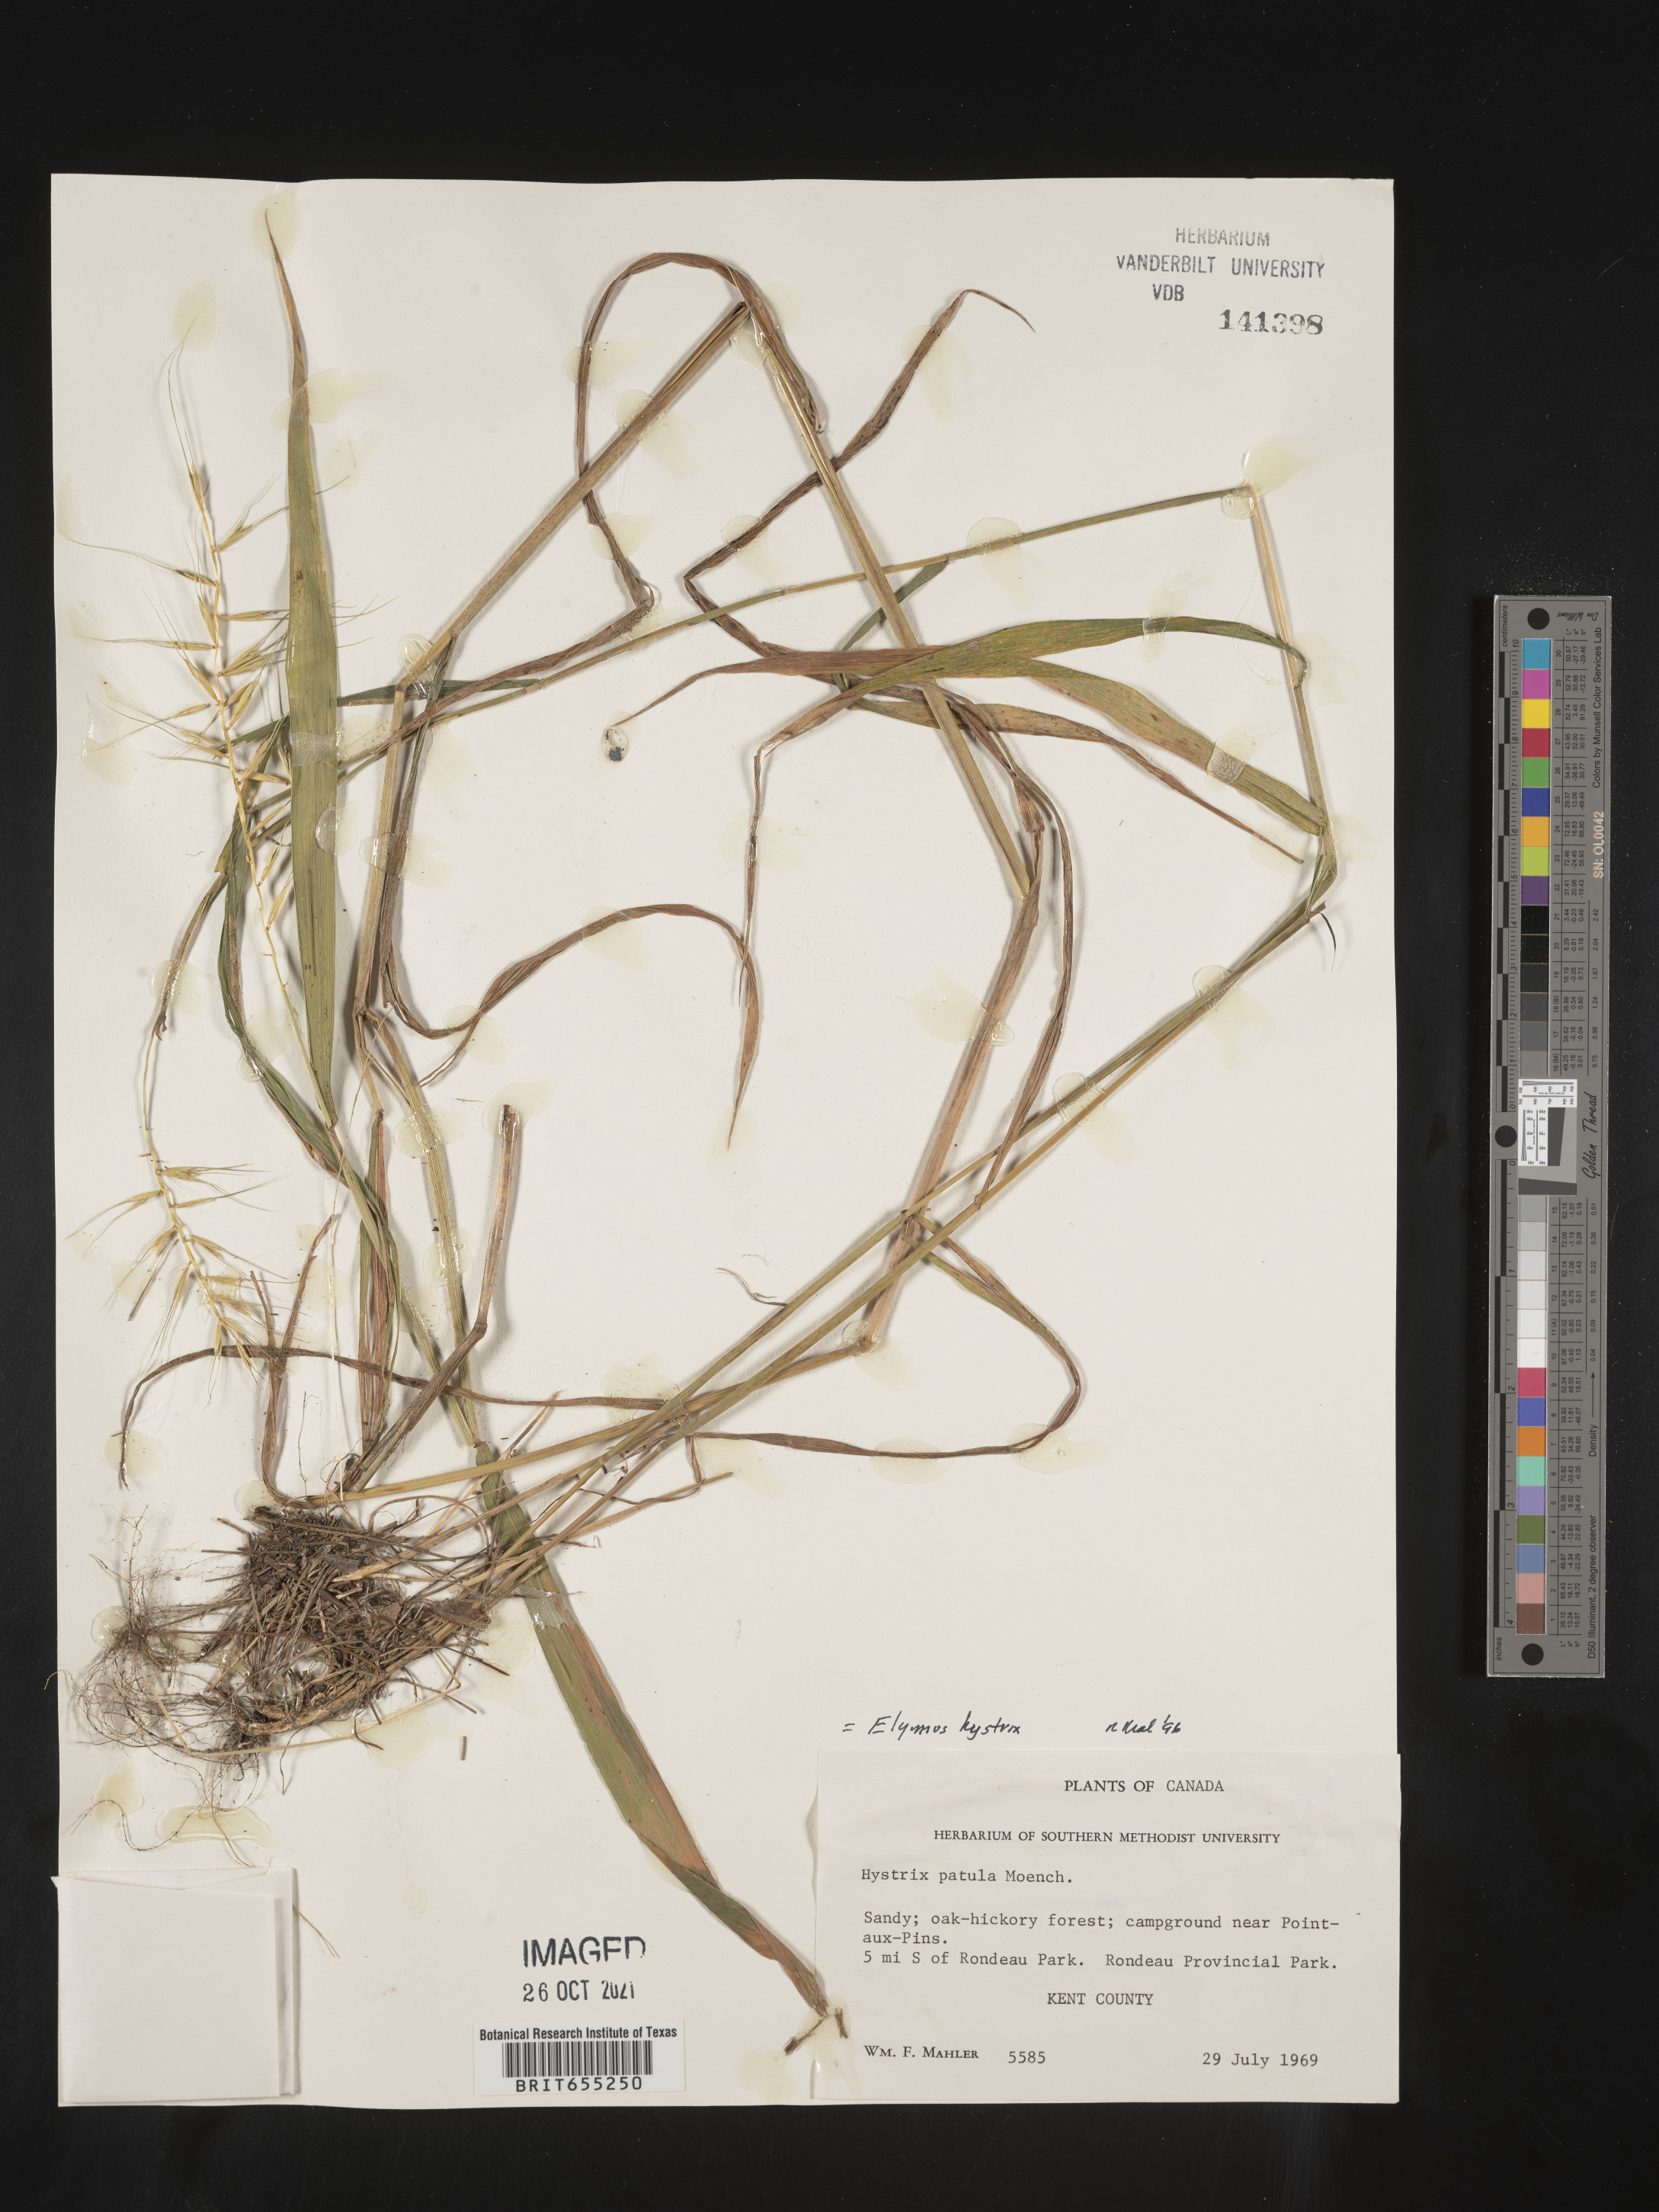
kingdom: Plantae
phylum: Tracheophyta
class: Liliopsida
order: Poales
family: Poaceae
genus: Elymus
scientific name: Elymus
